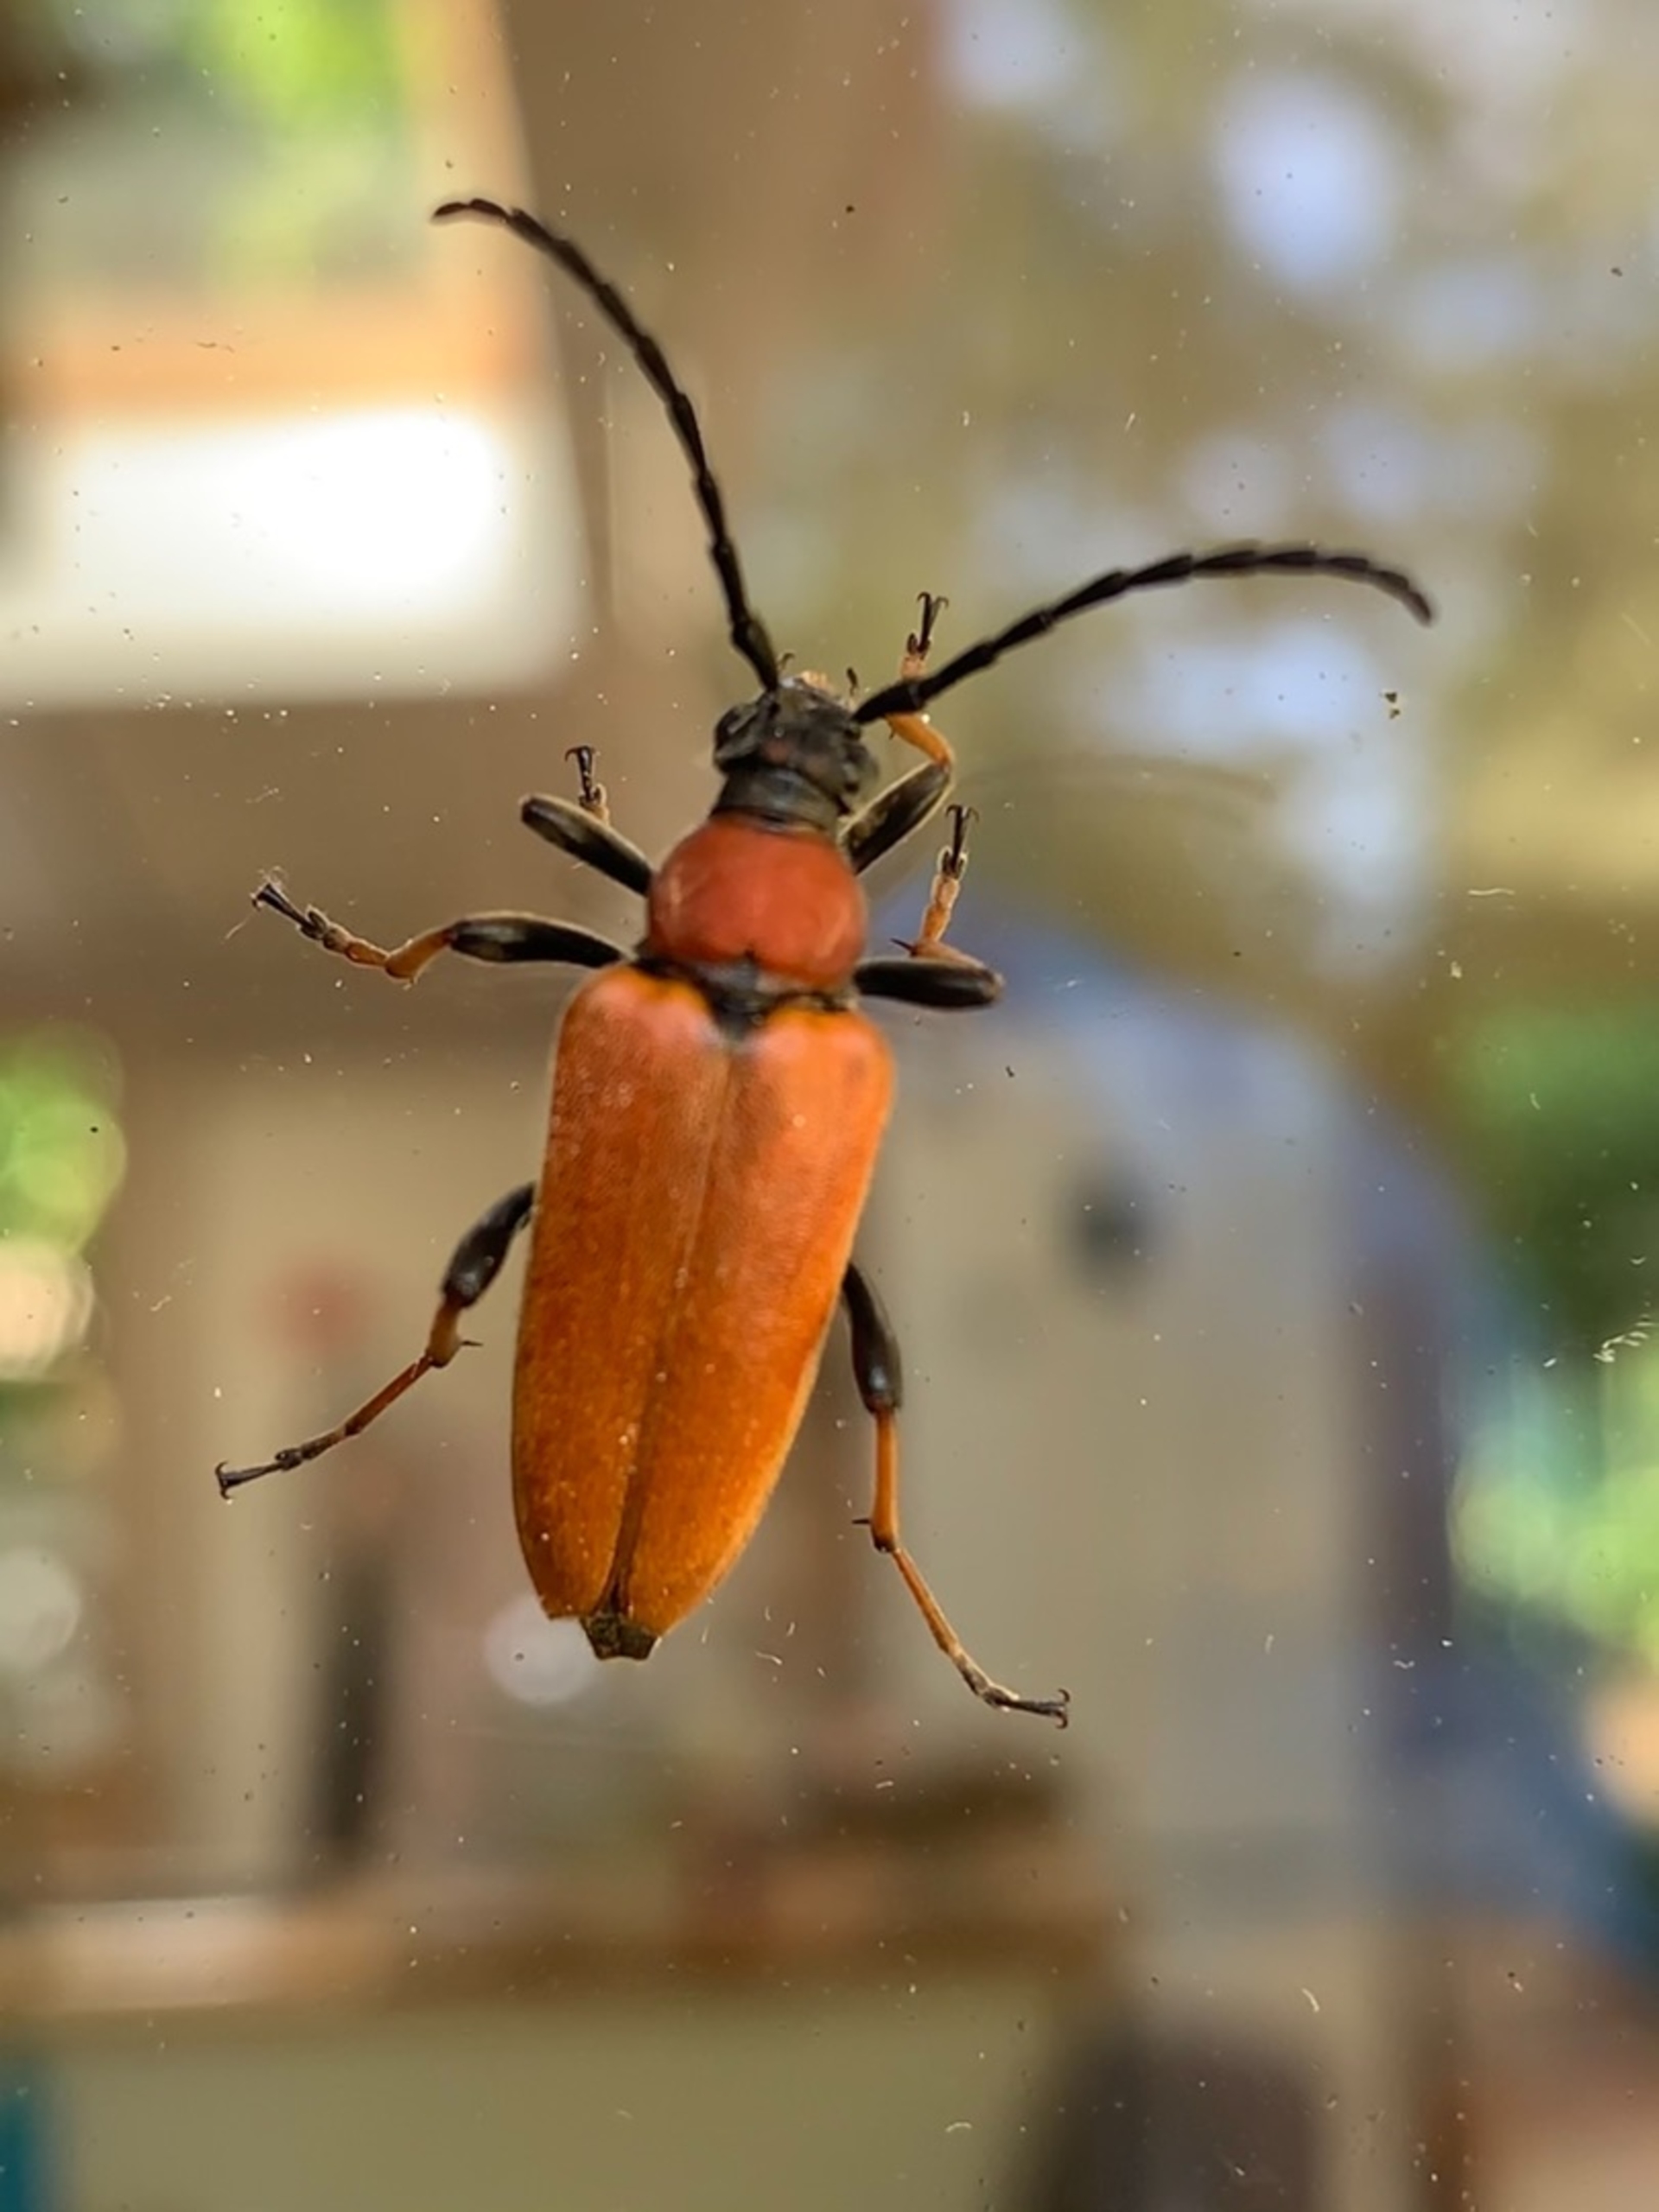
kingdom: Animalia
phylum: Arthropoda
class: Insecta
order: Coleoptera
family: Cerambycidae
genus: Stictoleptura
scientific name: Stictoleptura rubra
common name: Rød blomsterbuk
